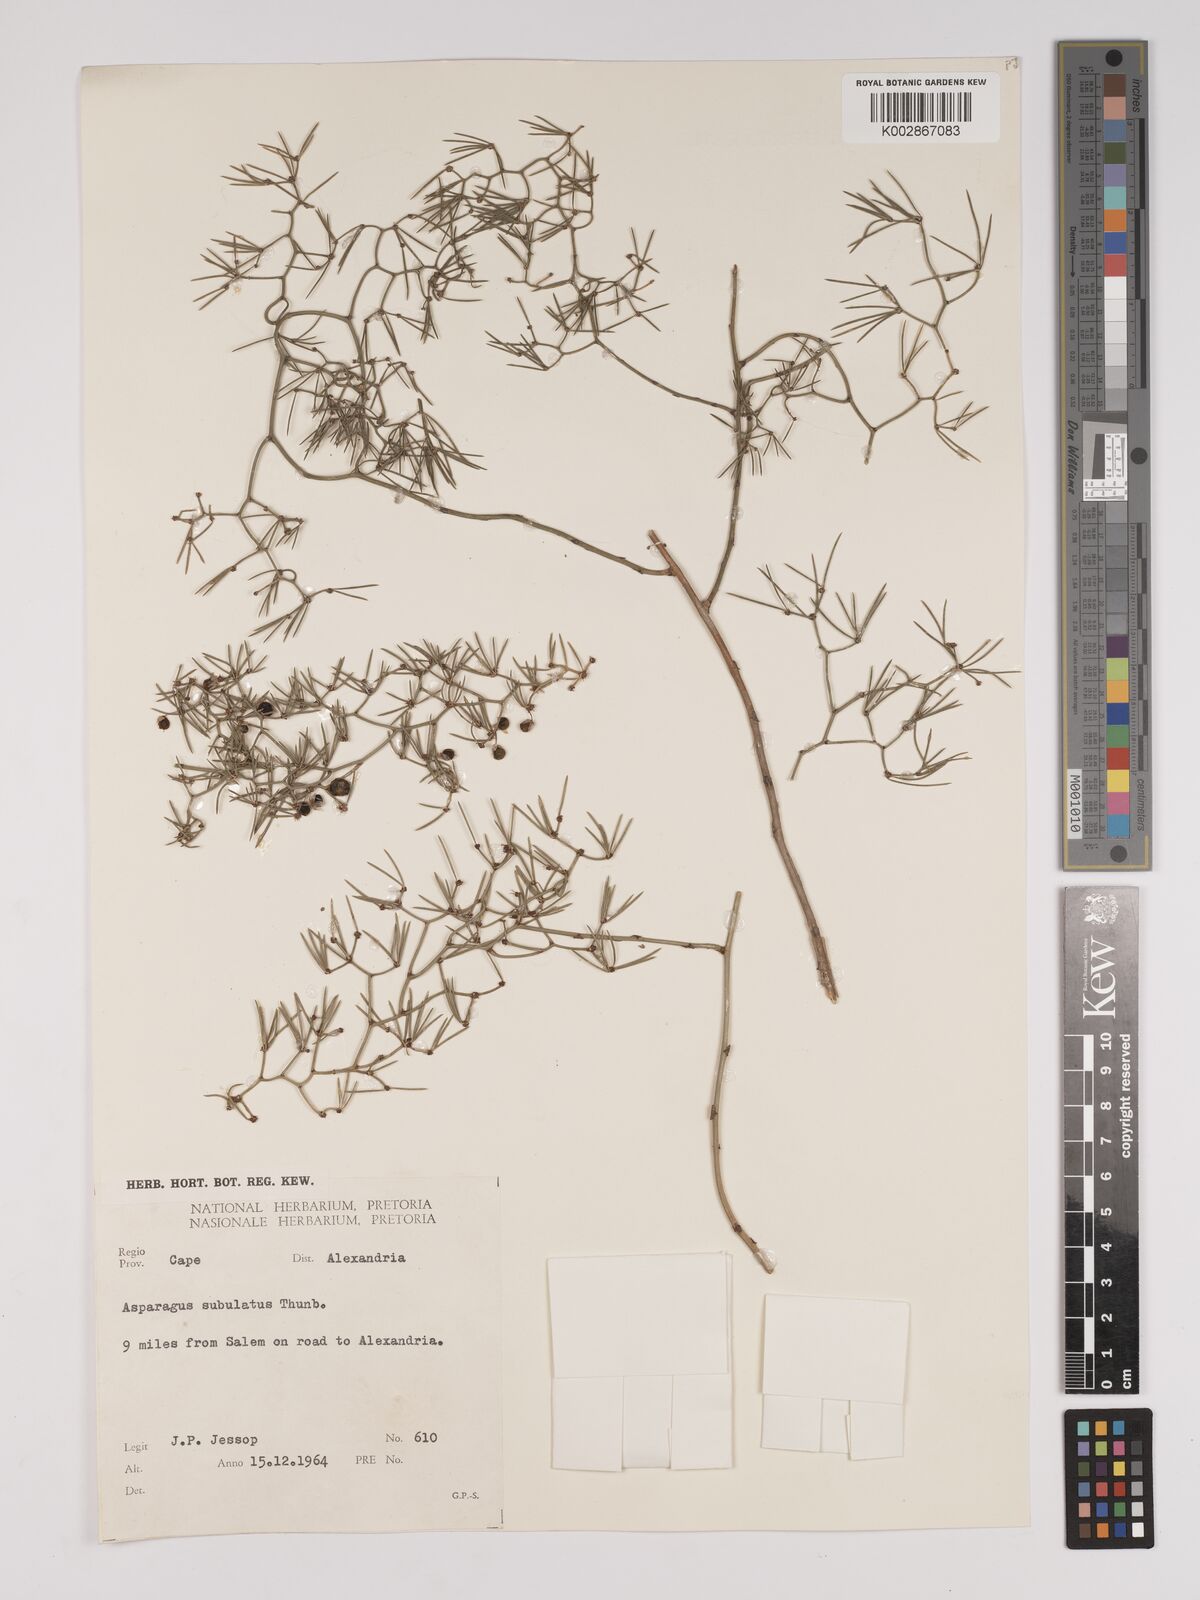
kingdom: Plantae
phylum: Tracheophyta
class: Liliopsida
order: Asparagales
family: Asparagaceae
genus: Asparagus
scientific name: Asparagus subulatus
